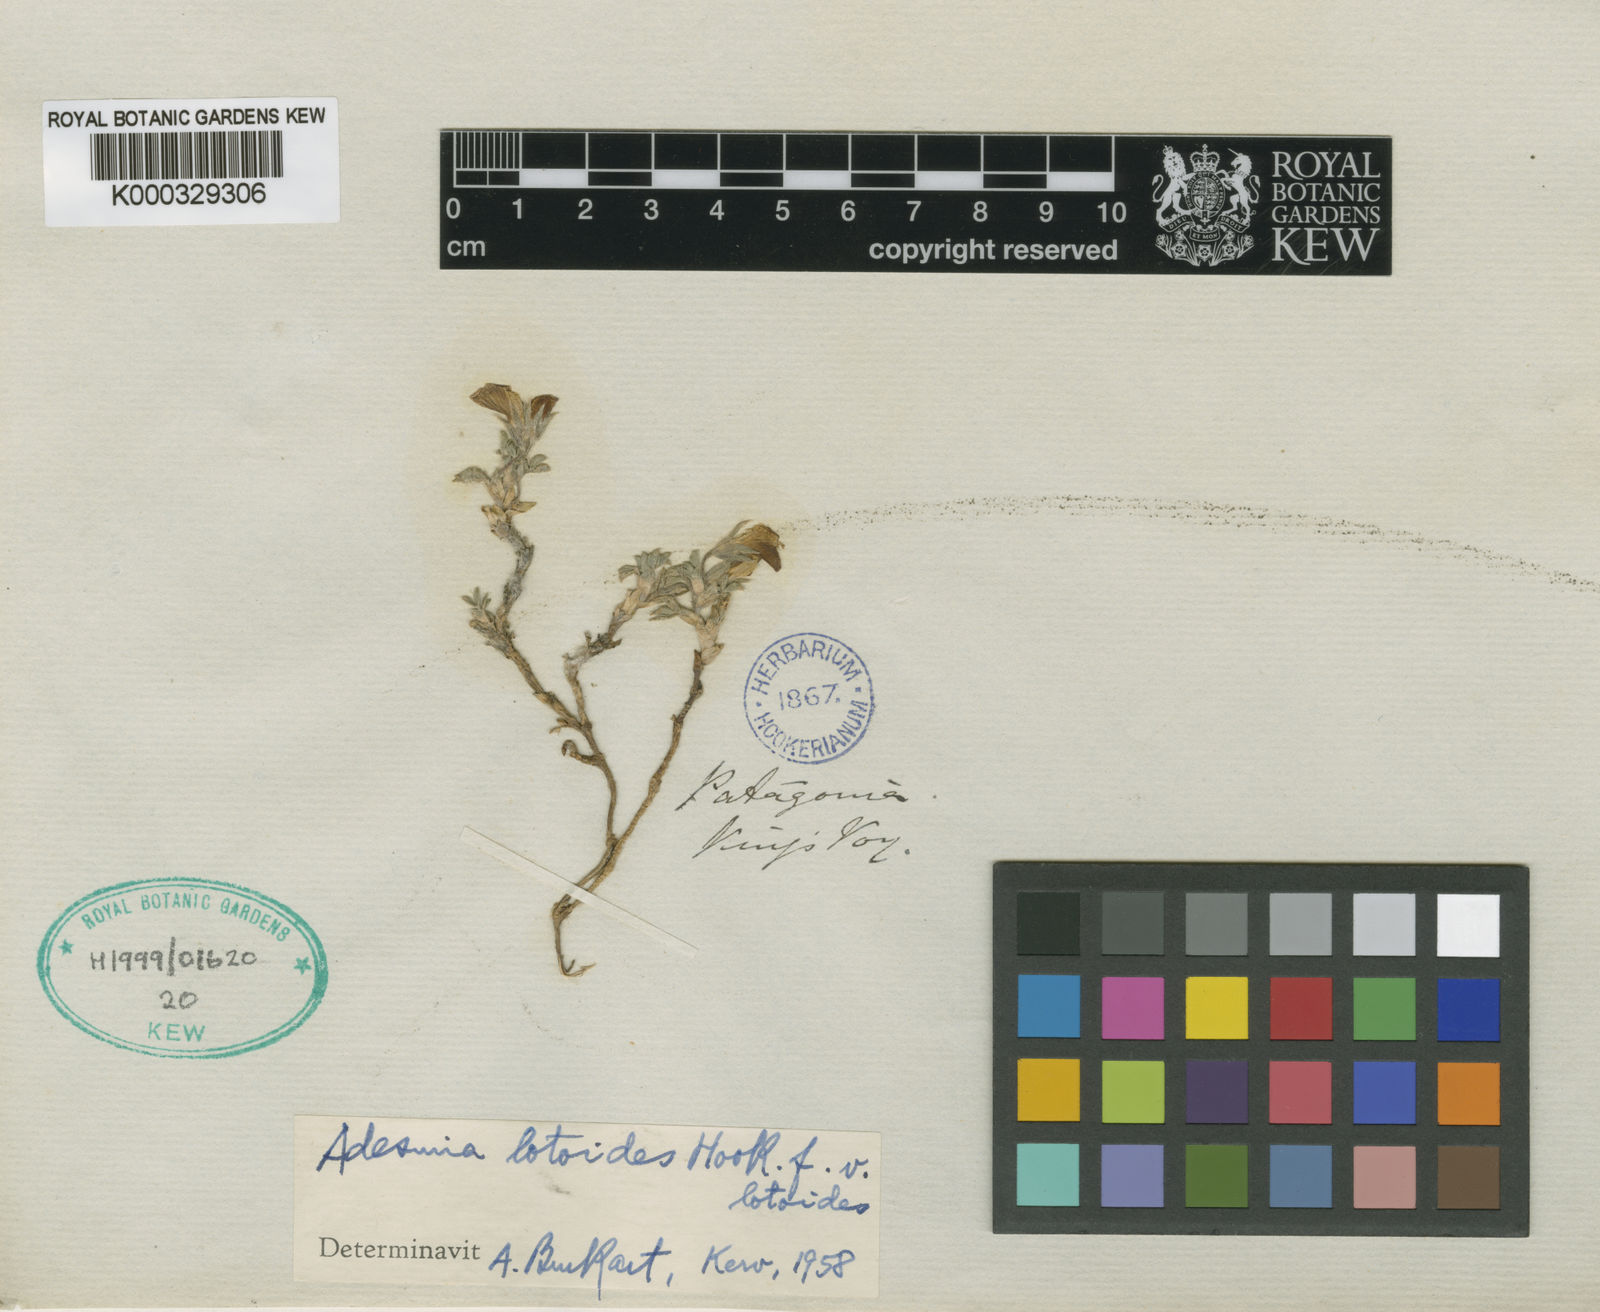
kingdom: Plantae
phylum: Tracheophyta
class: Magnoliopsida
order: Fabales
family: Fabaceae
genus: Adesmia
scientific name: Adesmia lotoides
